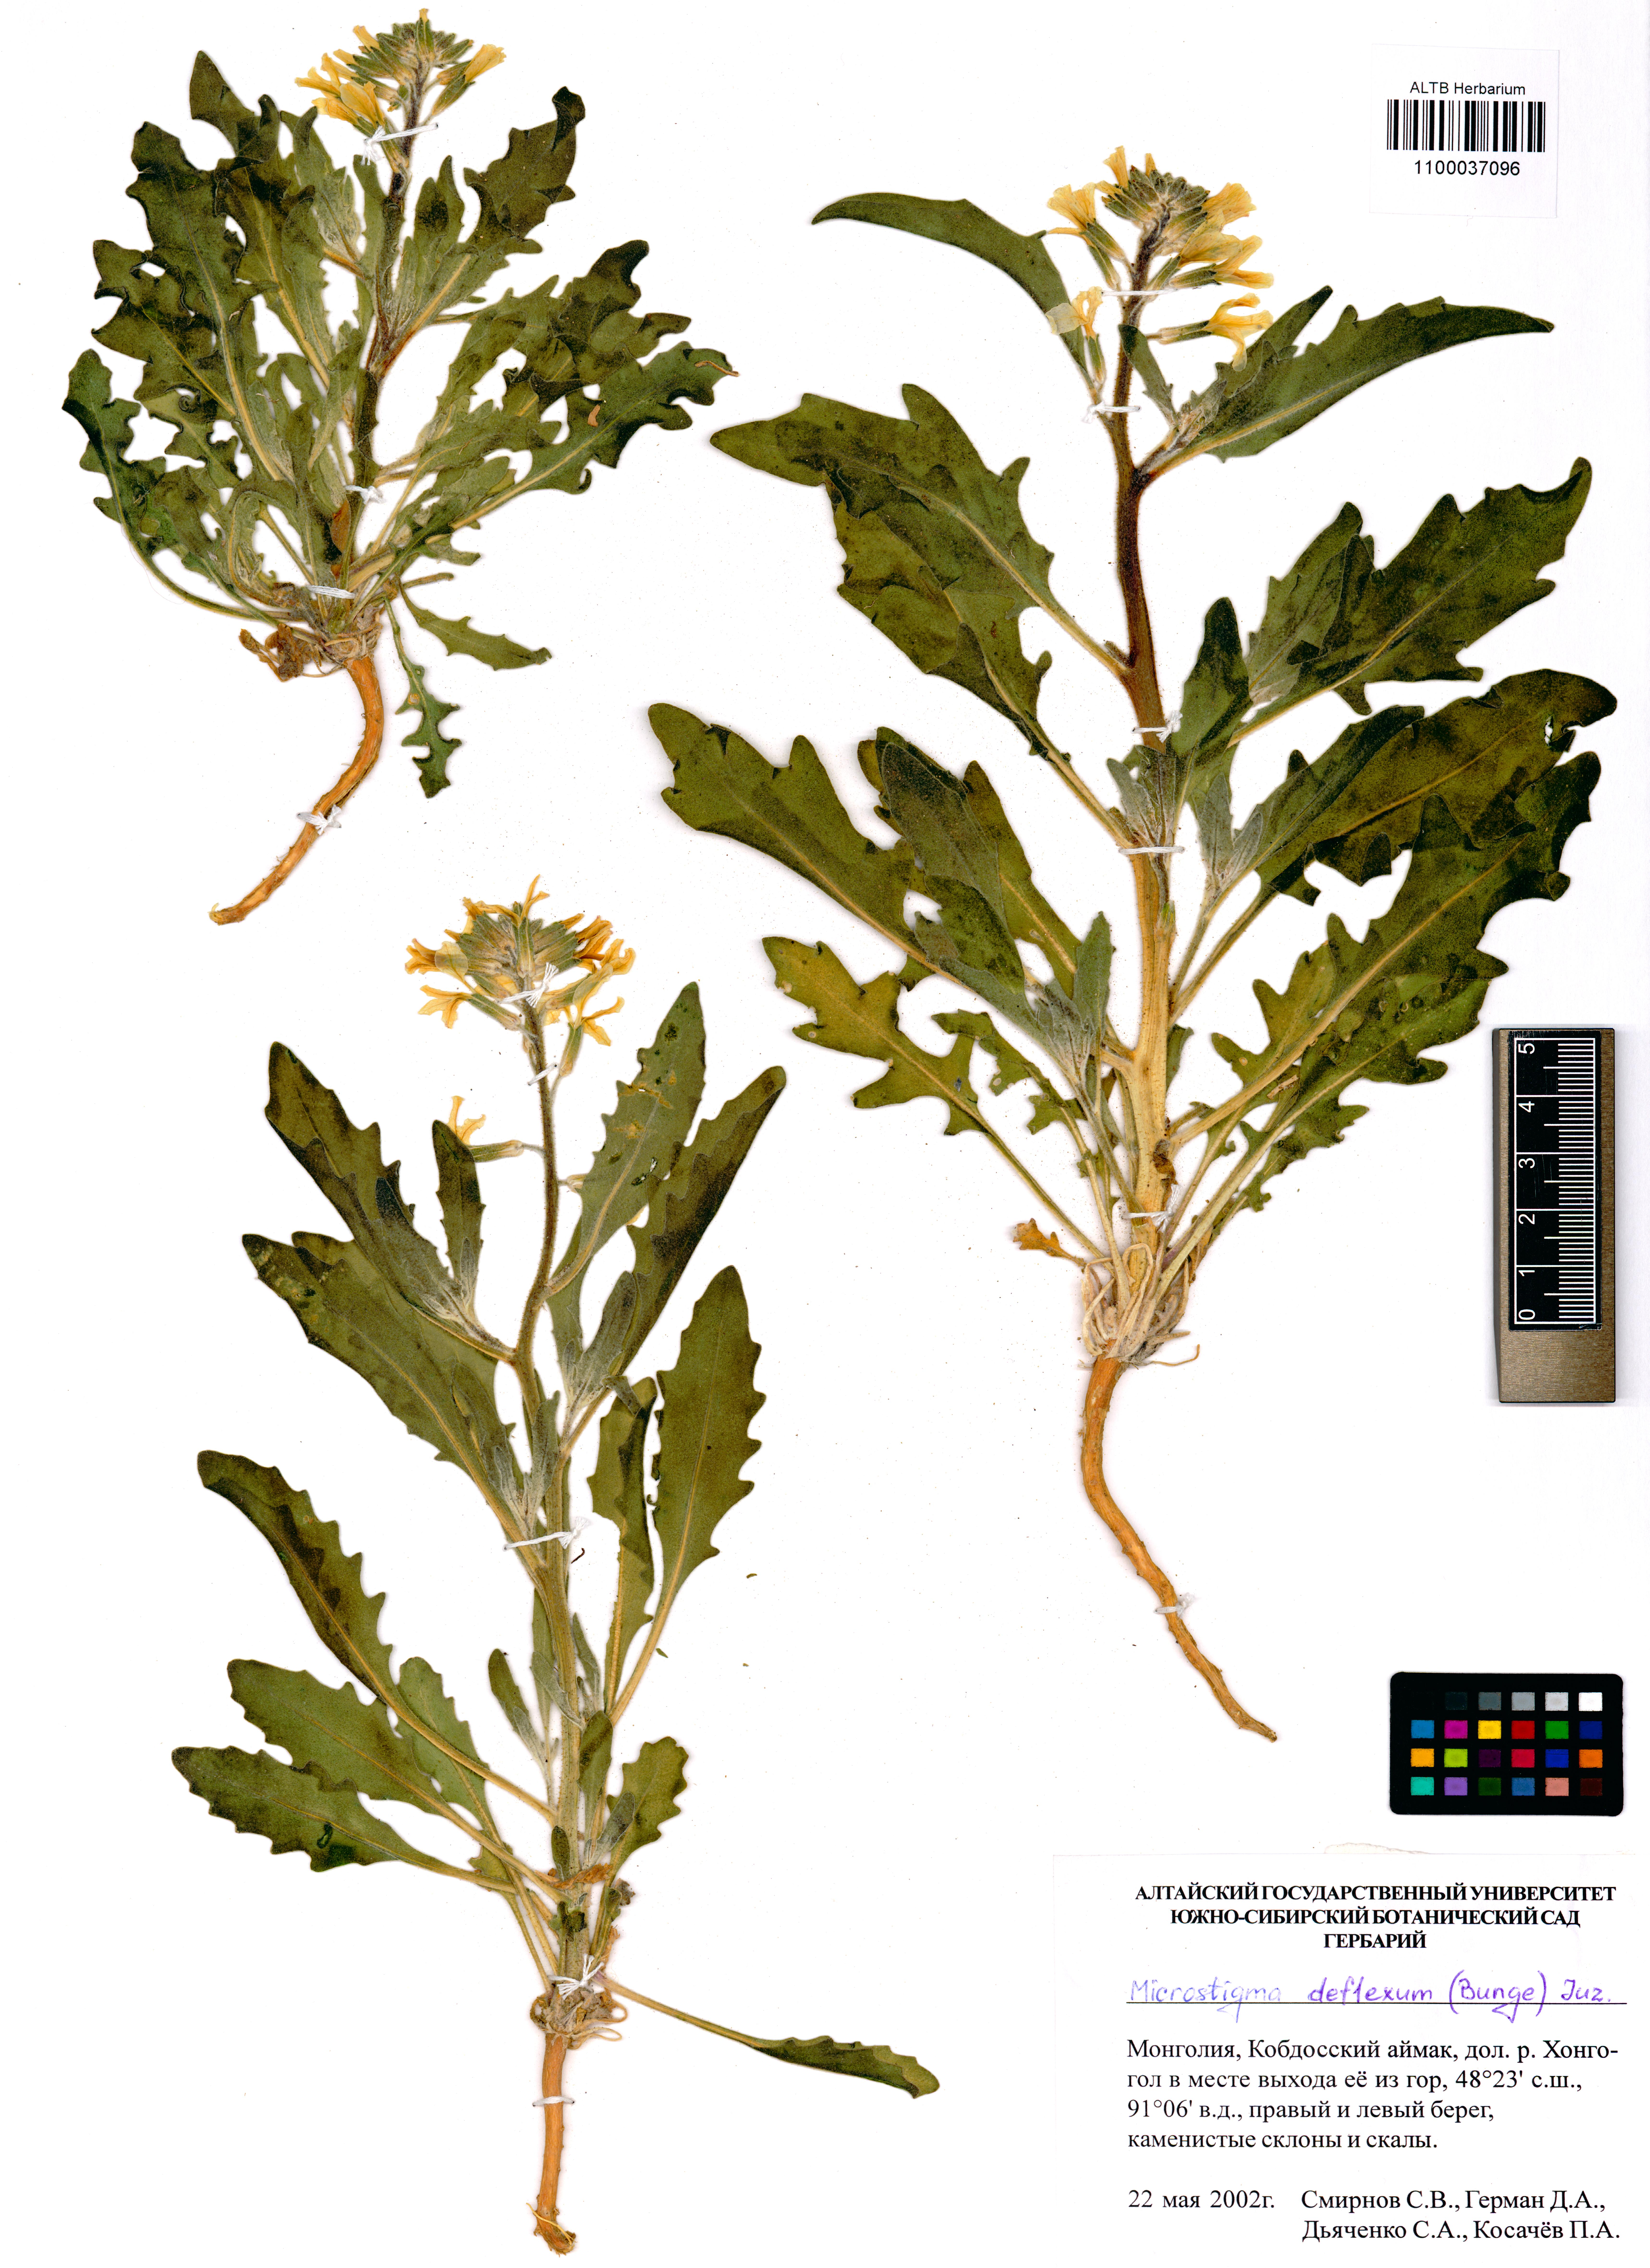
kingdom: Plantae
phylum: Tracheophyta
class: Magnoliopsida
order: Brassicales
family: Brassicaceae
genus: Microstigma
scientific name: Microstigma deflexum
